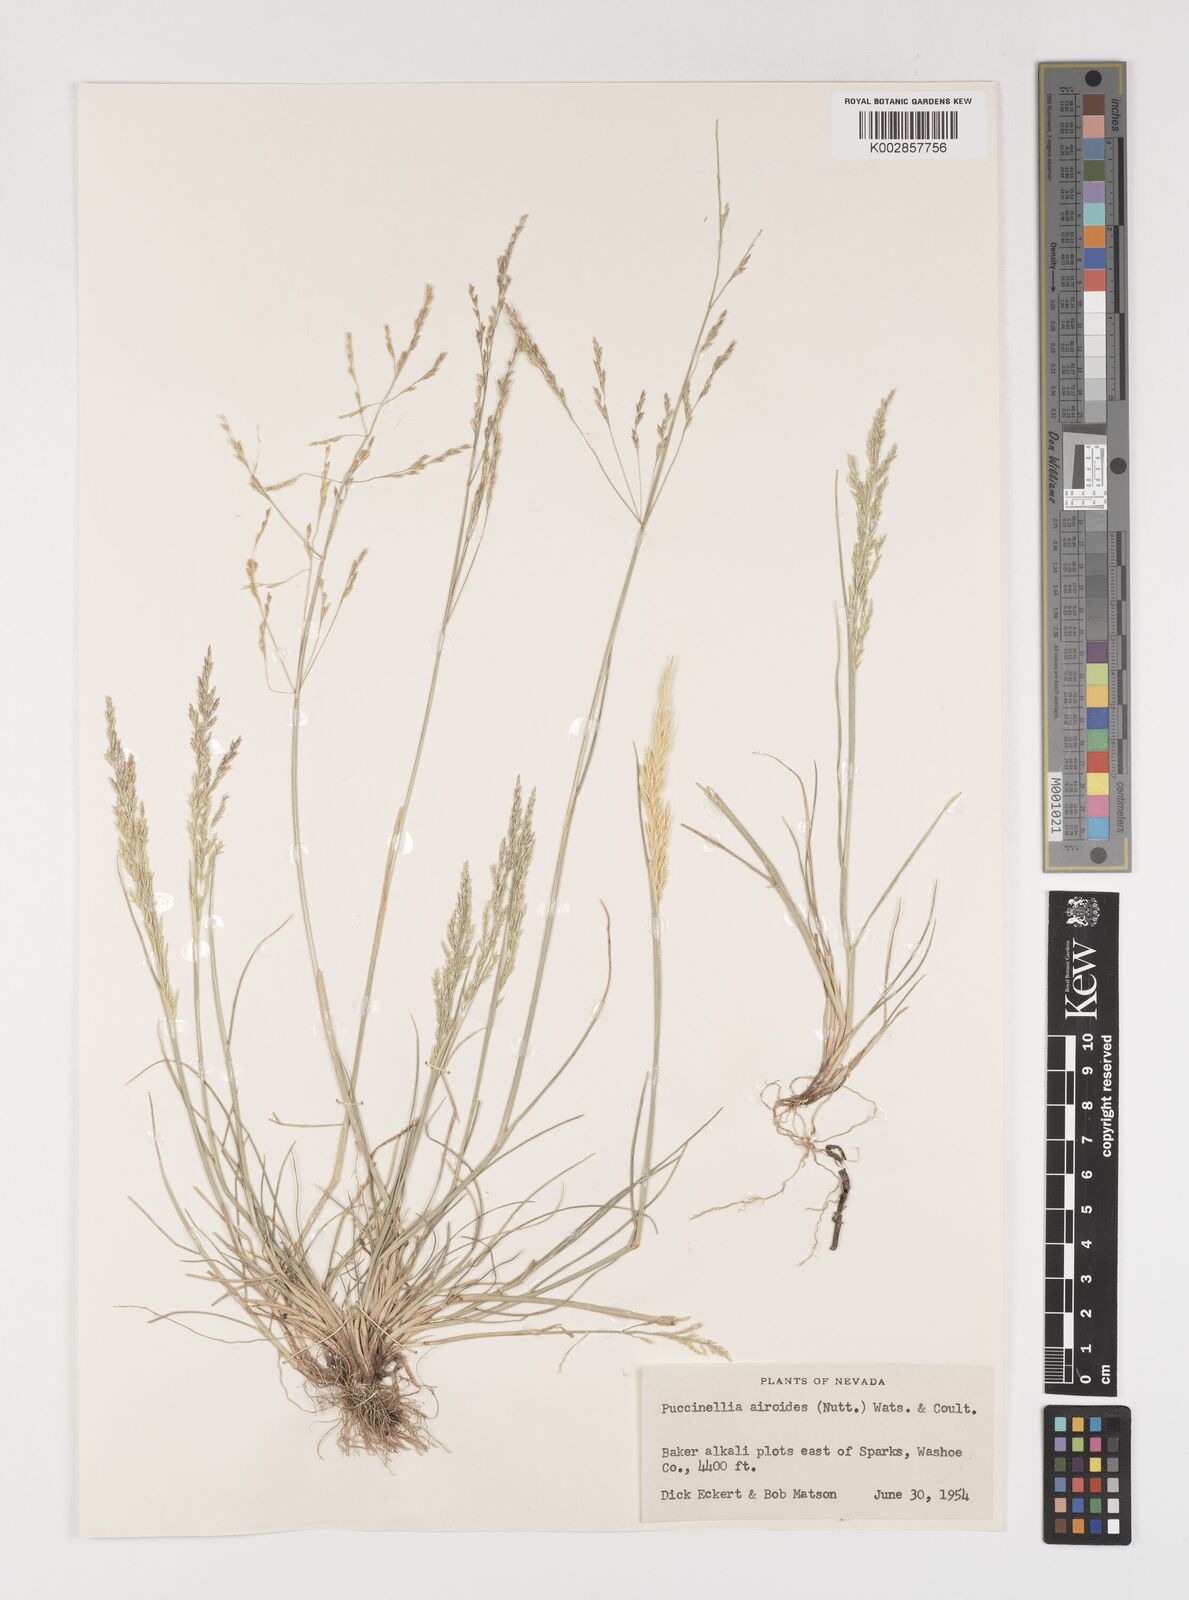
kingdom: Plantae
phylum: Tracheophyta
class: Liliopsida
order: Poales
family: Poaceae
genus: Puccinellia
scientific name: Puccinellia nuttalliana
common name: Nuttall's alkali grass
